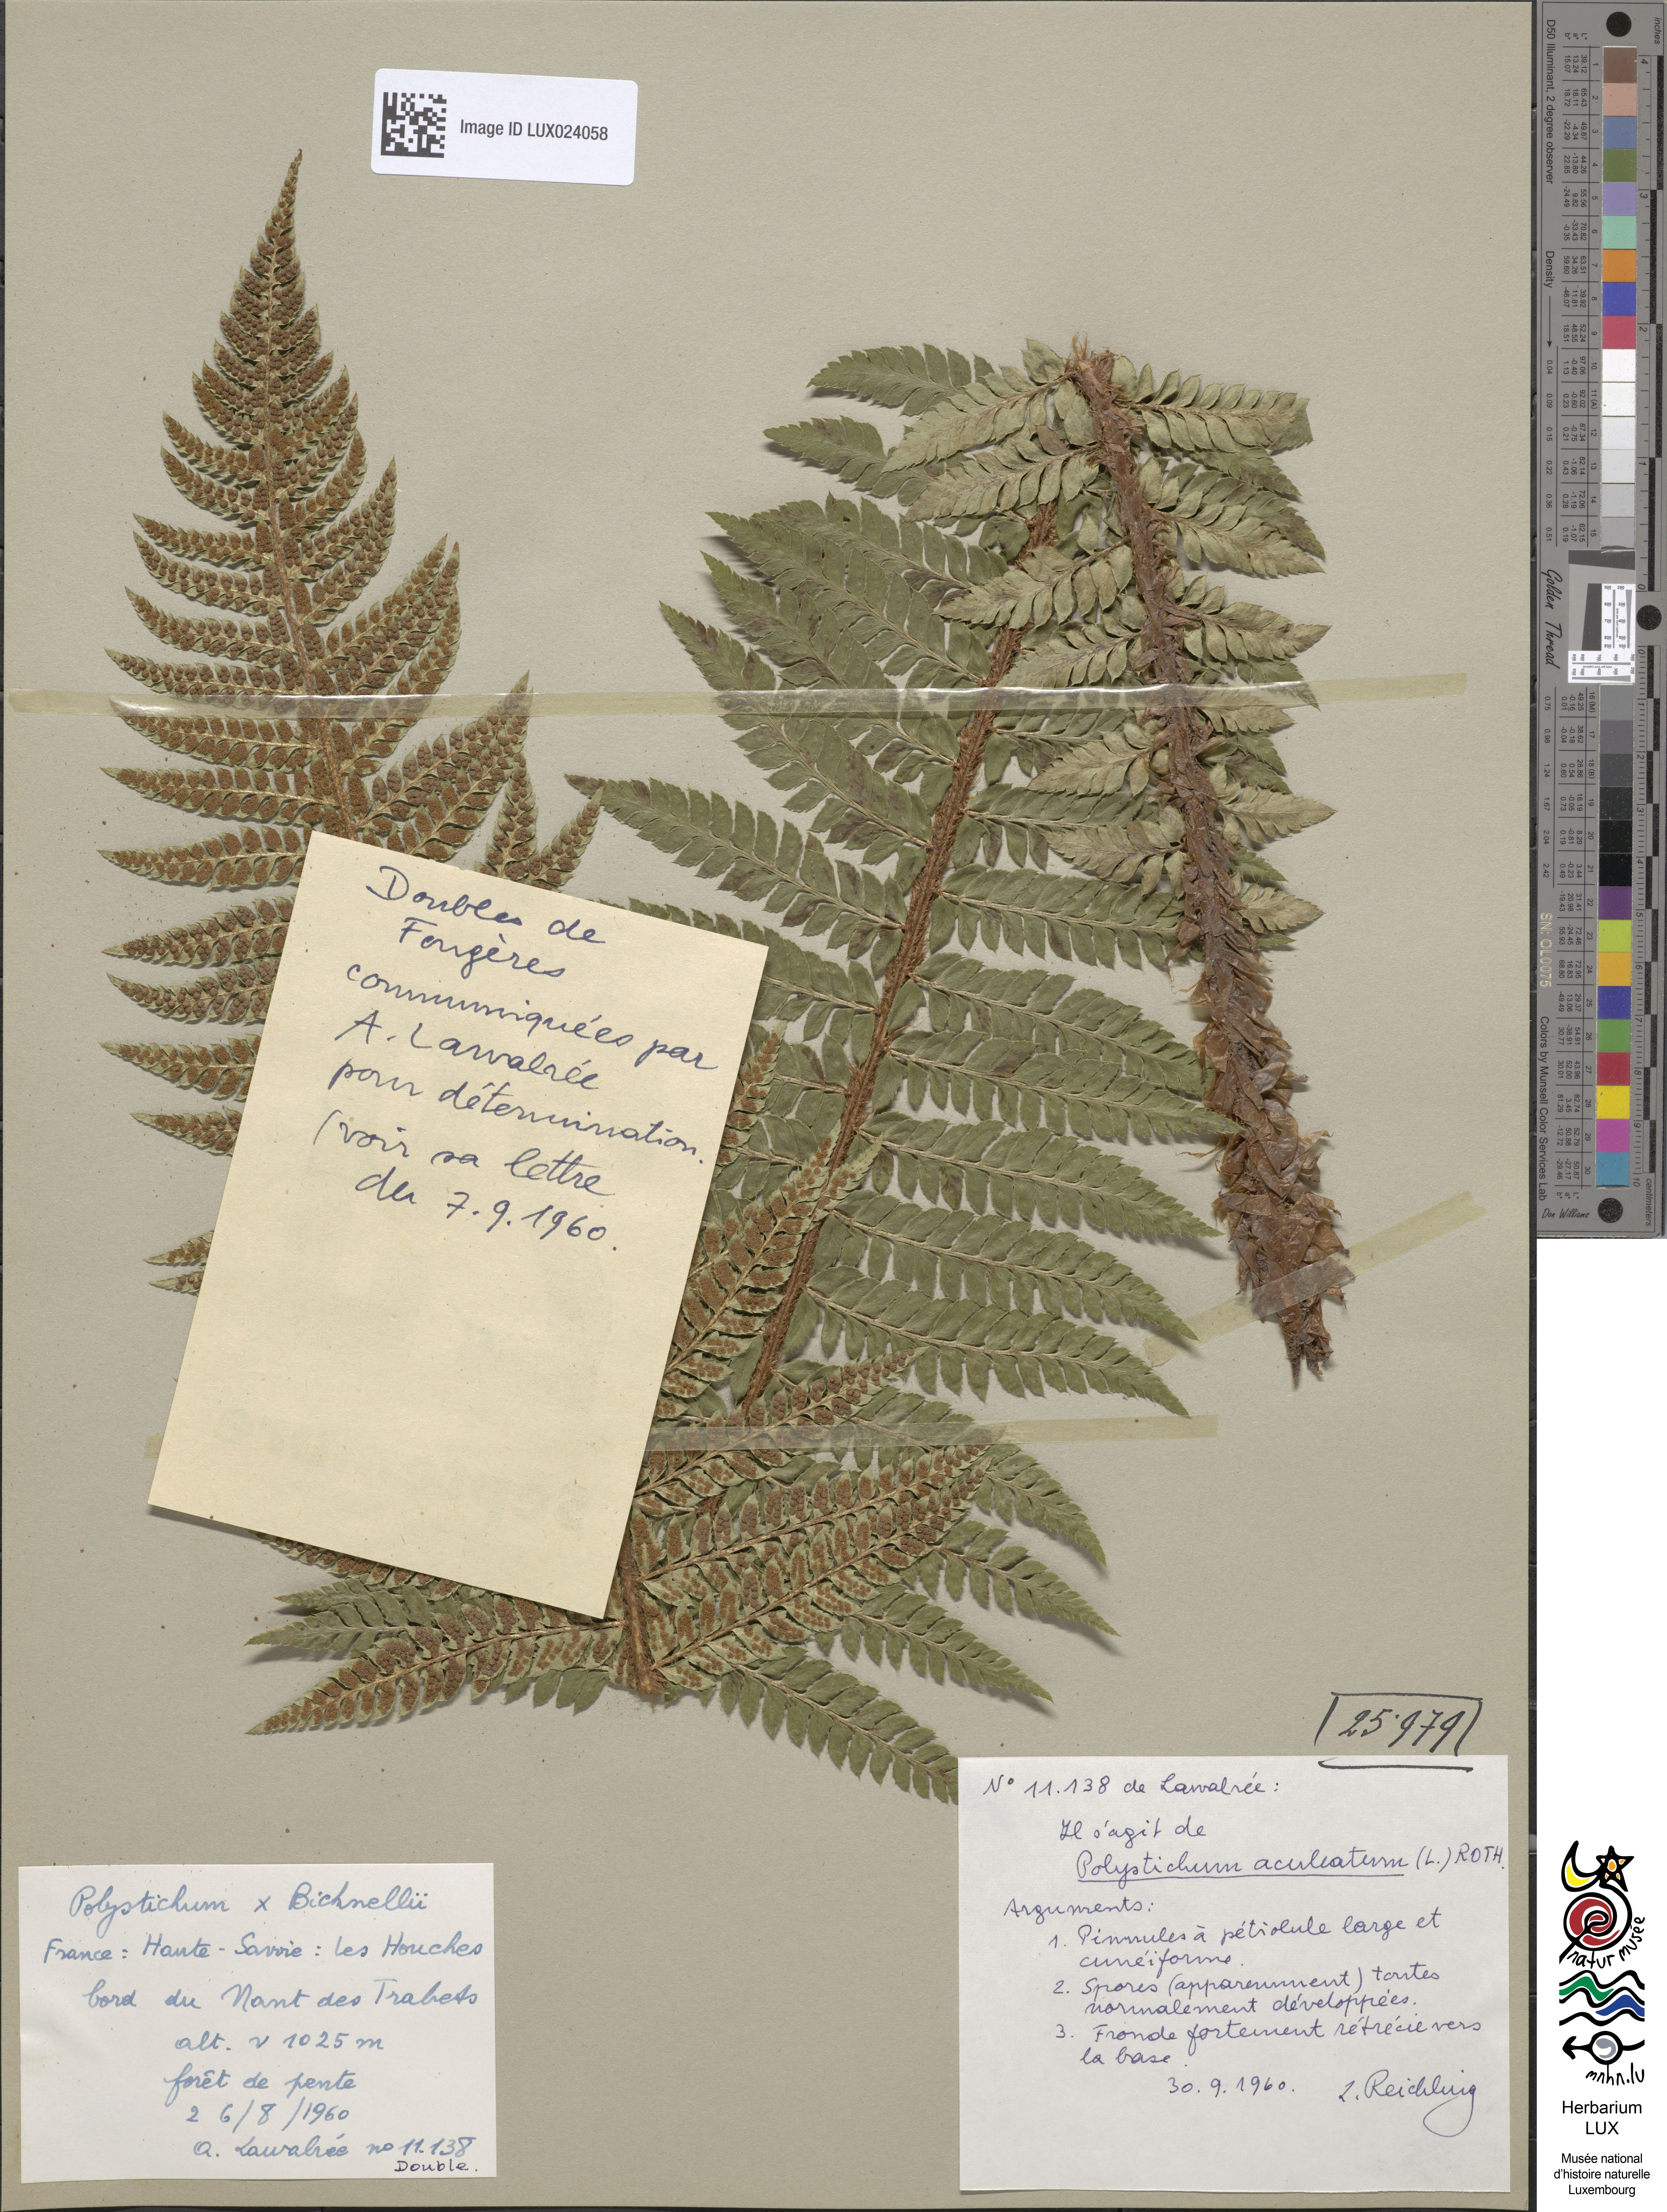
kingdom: Plantae
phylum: Tracheophyta
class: Polypodiopsida
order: Polypodiales
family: Dryopteridaceae
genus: Polystichum
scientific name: Polystichum aculeatum
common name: Hard shield-fern
